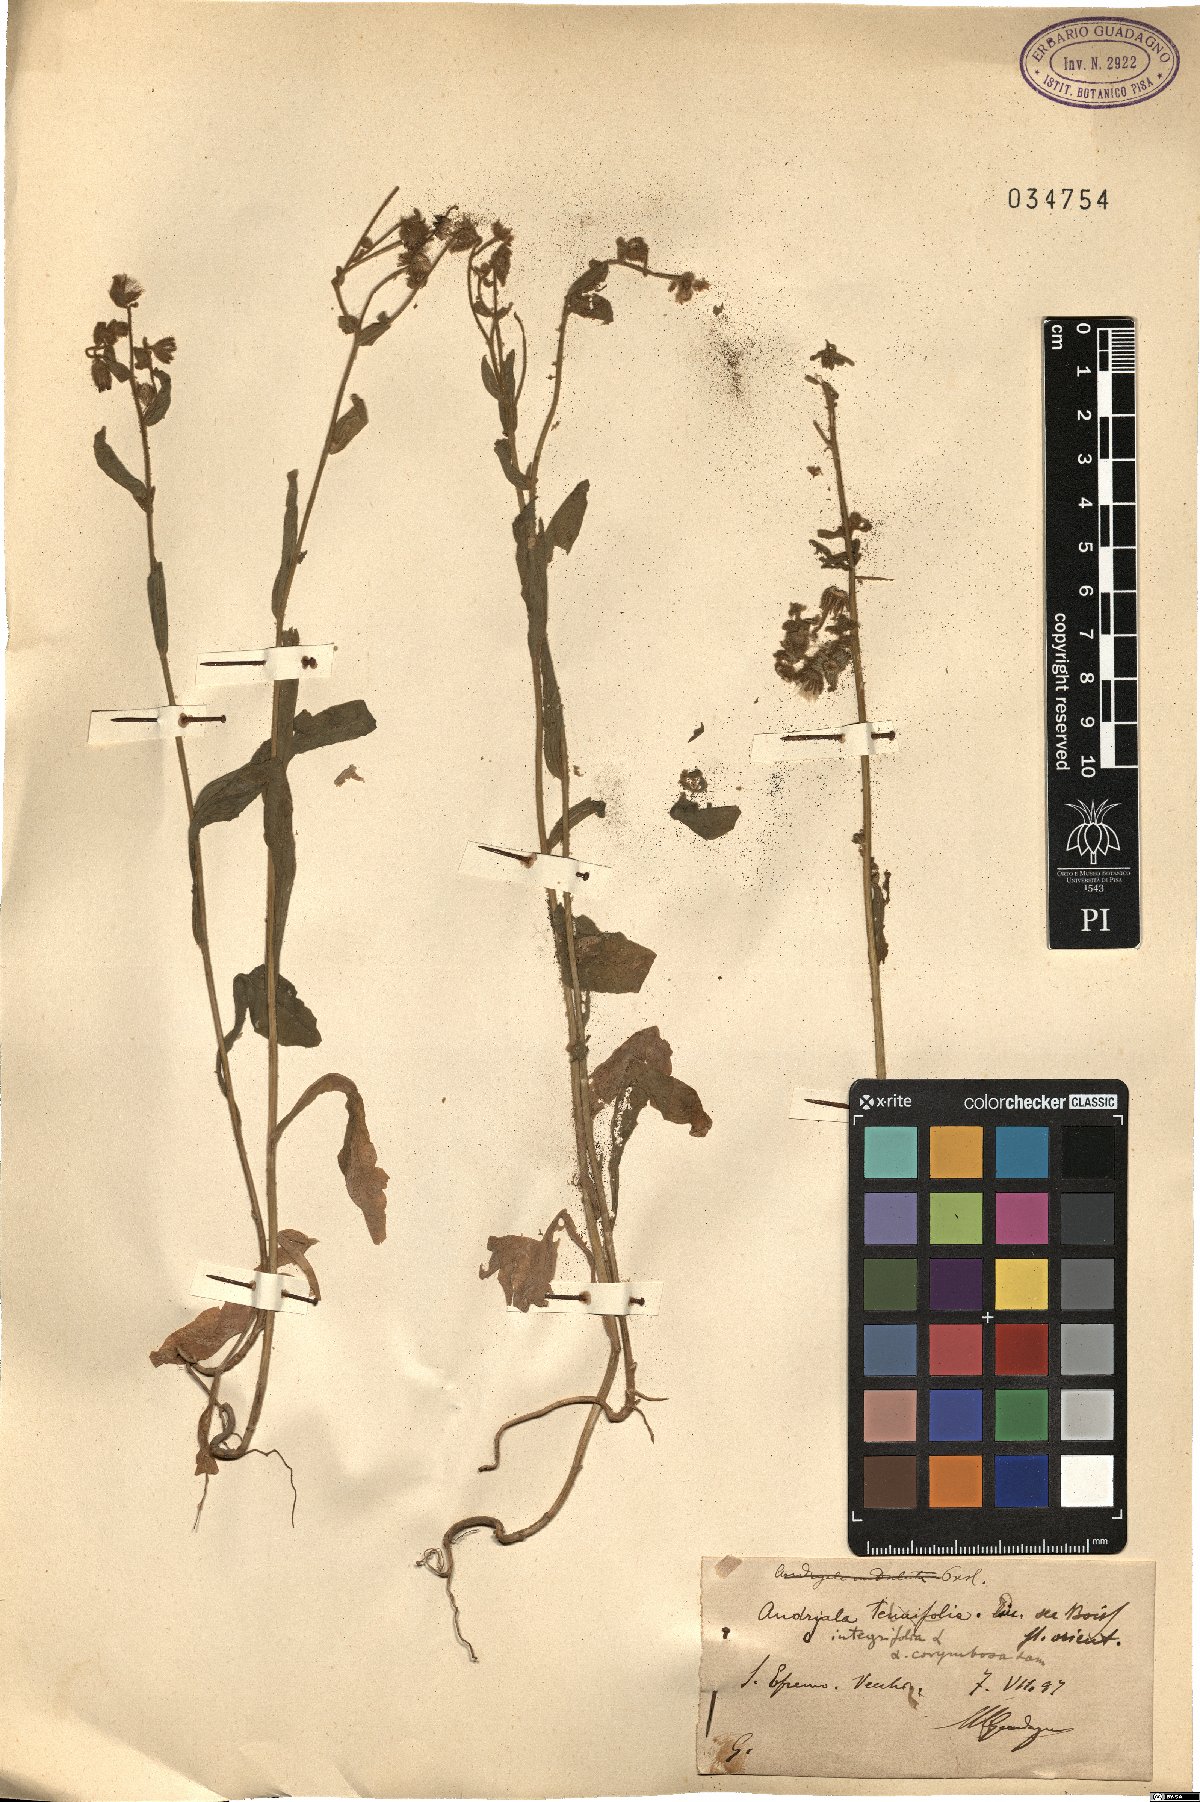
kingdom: Plantae
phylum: Tracheophyta
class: Magnoliopsida
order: Asterales
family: Asteraceae
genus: Andryala
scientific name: Andryala integrifolia
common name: Common andryala
